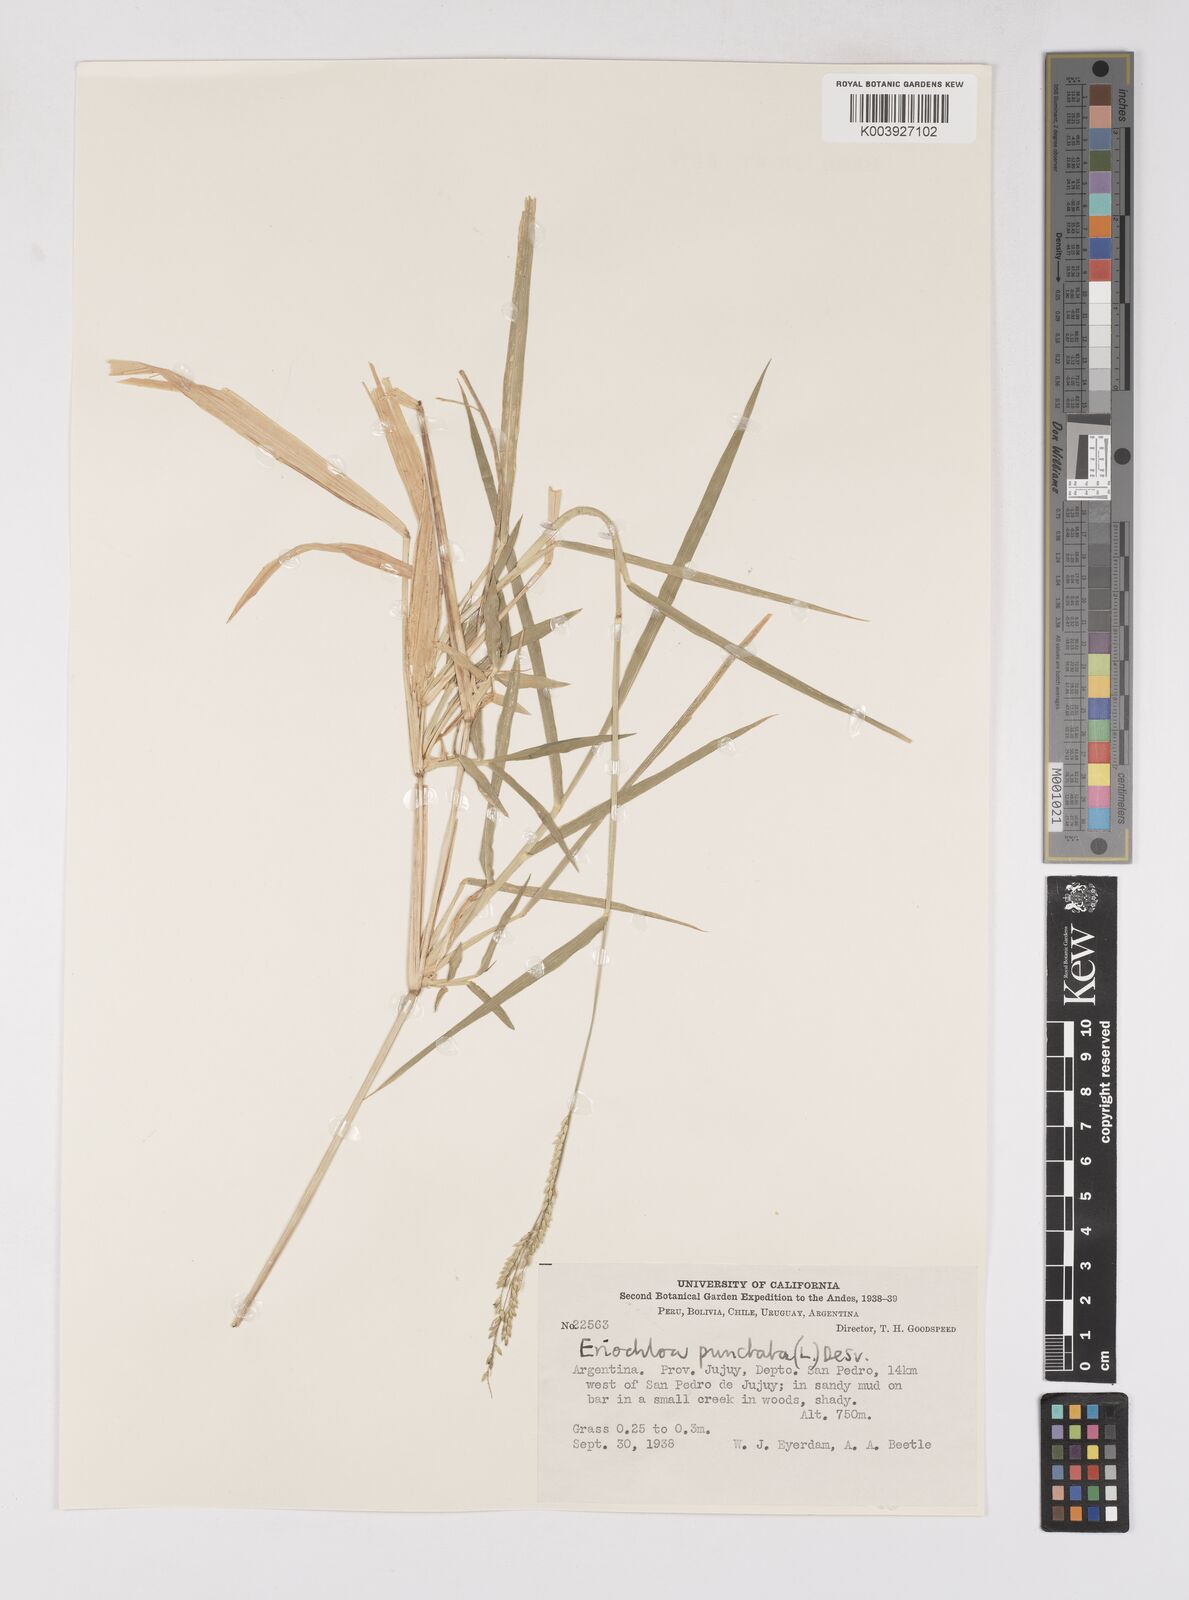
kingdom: Plantae
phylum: Tracheophyta
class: Liliopsida
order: Poales
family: Poaceae
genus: Eriochloa
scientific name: Eriochloa punctata
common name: Louisiana cupgrass
